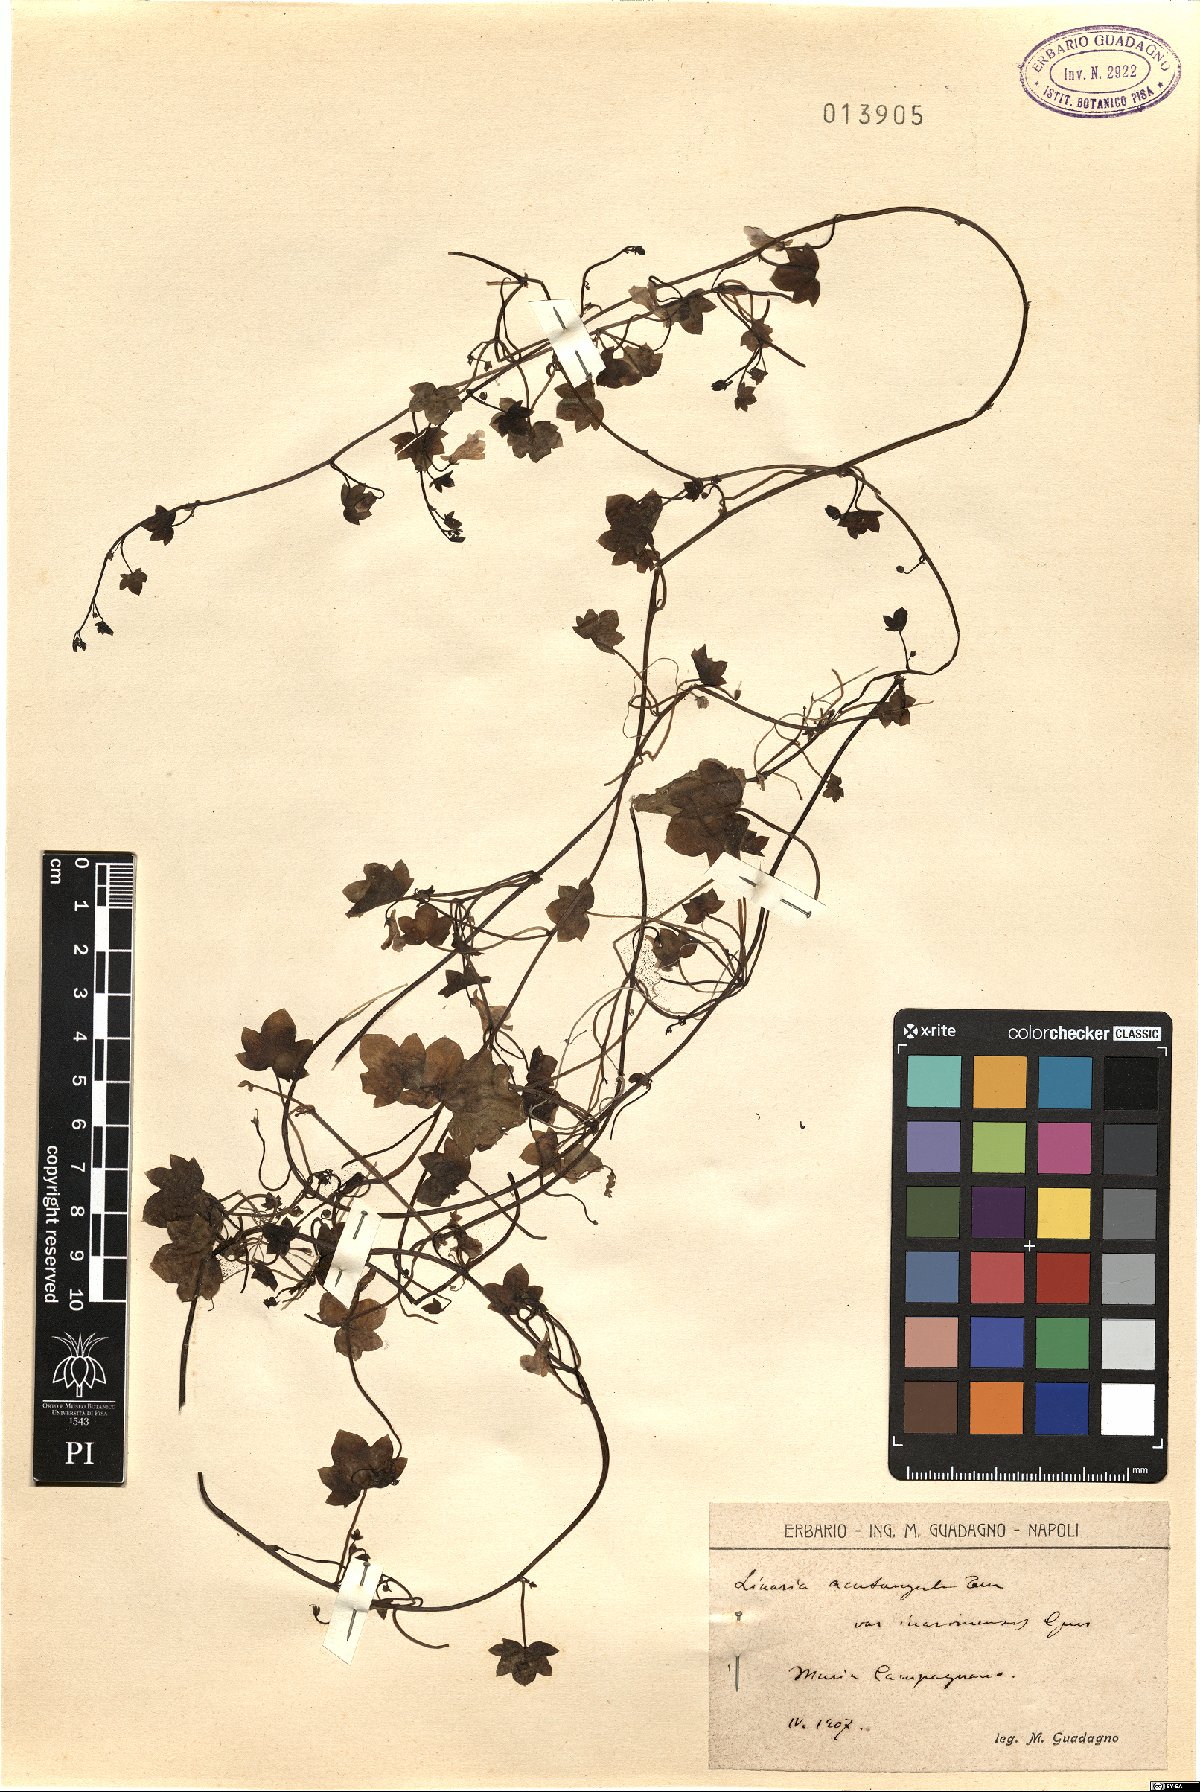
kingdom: Plantae
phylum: Tracheophyta
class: Magnoliopsida
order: Lamiales
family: Plantaginaceae
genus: Cymbalaria
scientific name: Cymbalaria muralis
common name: Ivy-leaved toadflax
